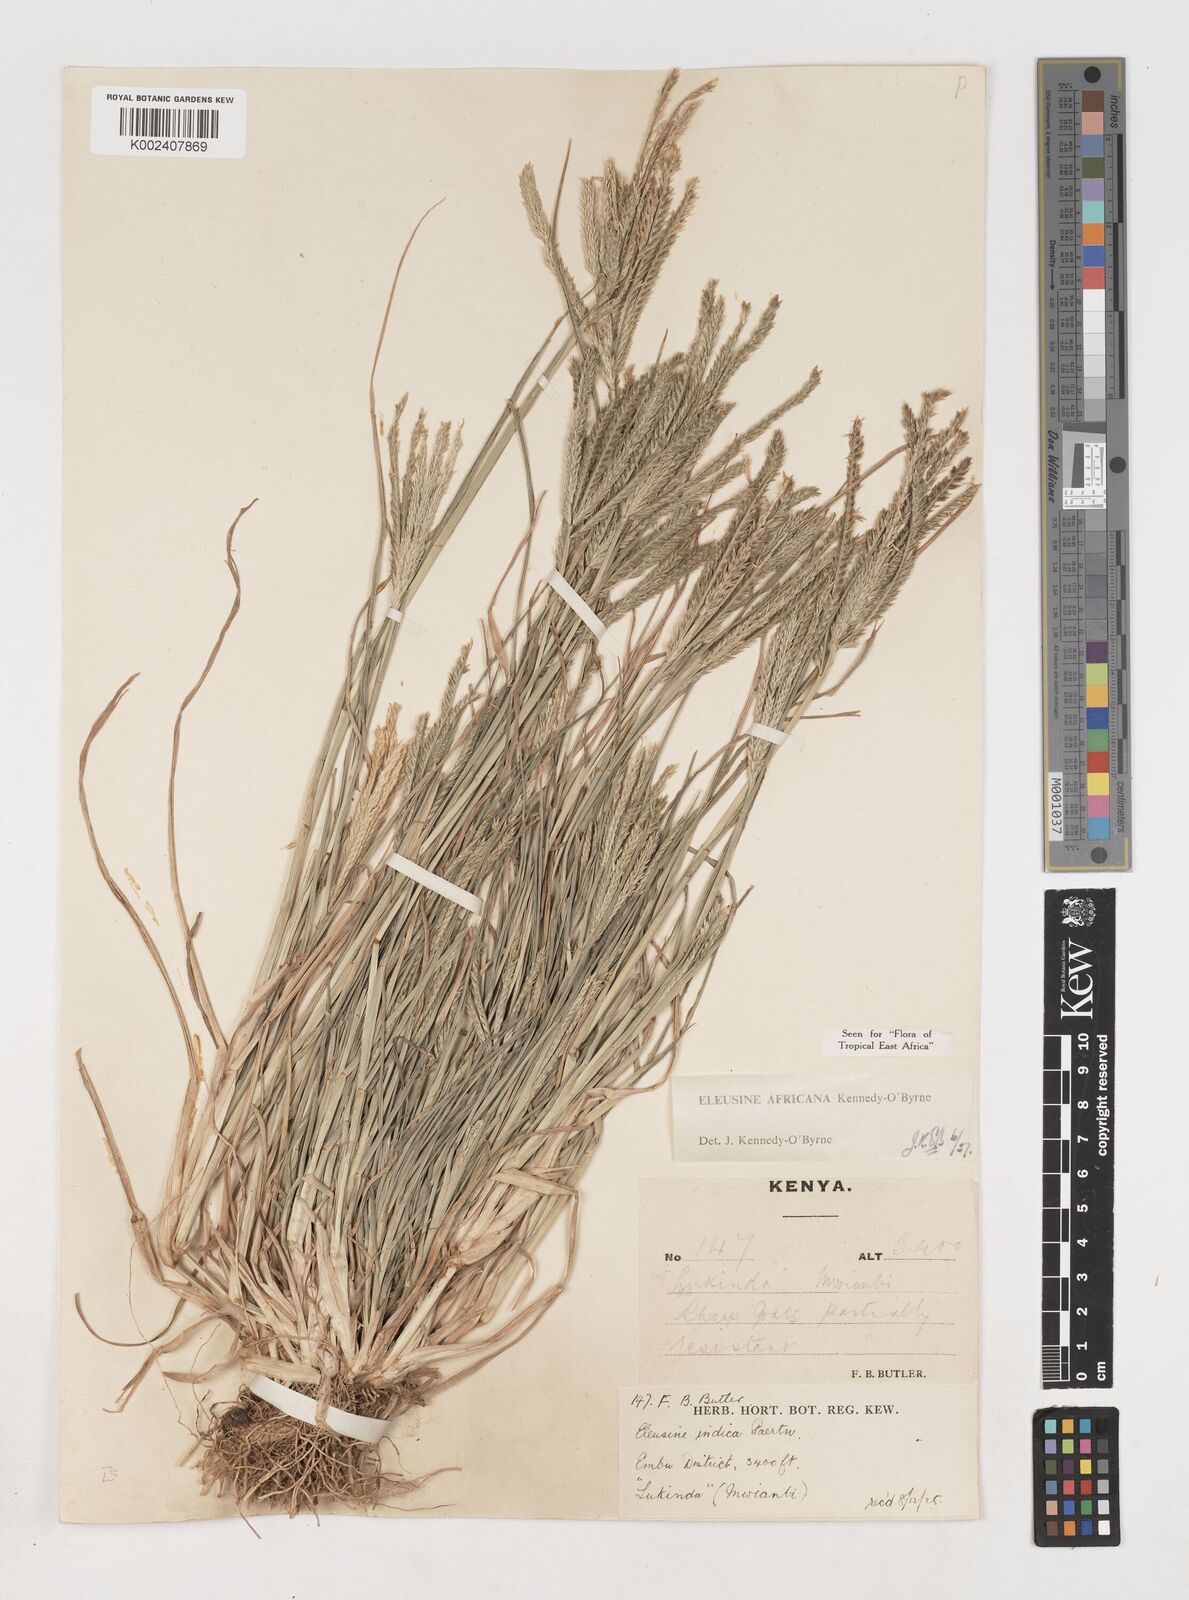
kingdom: Plantae
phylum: Tracheophyta
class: Liliopsida
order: Poales
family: Poaceae
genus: Eleusine
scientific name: Eleusine africana
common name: Wild african finger millet
